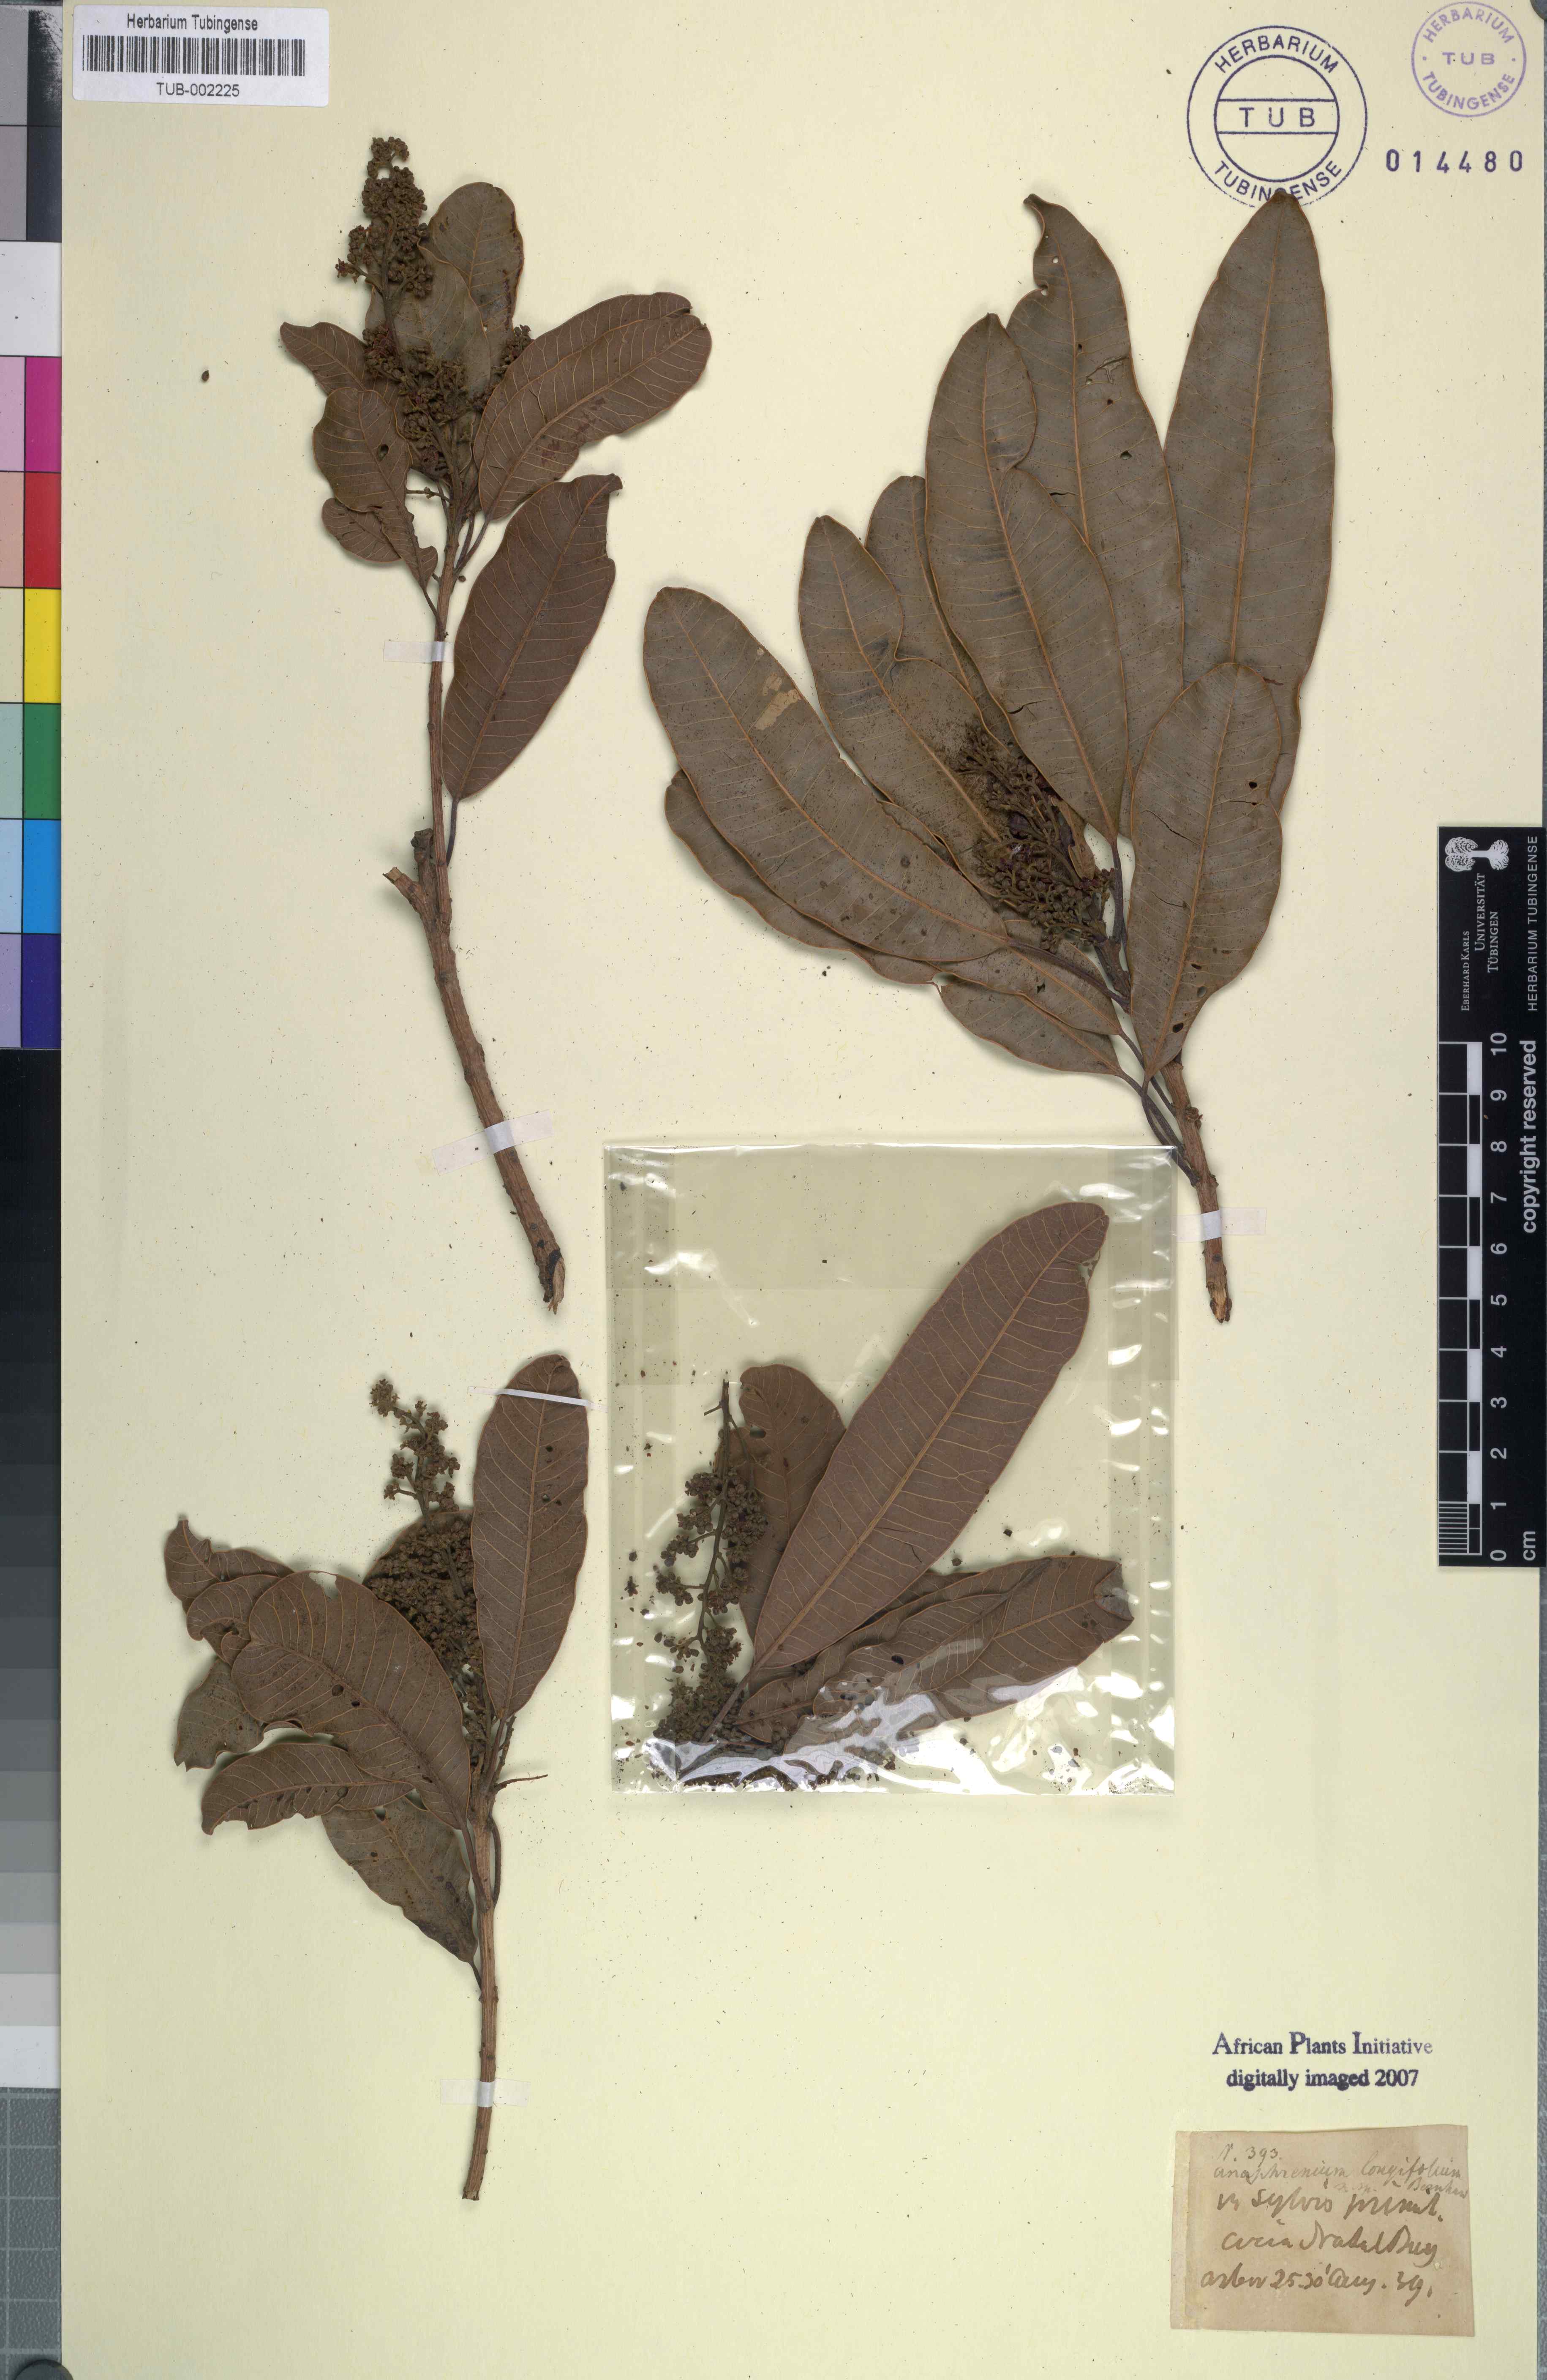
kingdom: Plantae
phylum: Tracheophyta
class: Magnoliopsida
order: Sapindales
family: Anacardiaceae
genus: Protorhus
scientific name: Protorhus longifolia
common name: Red-beech
